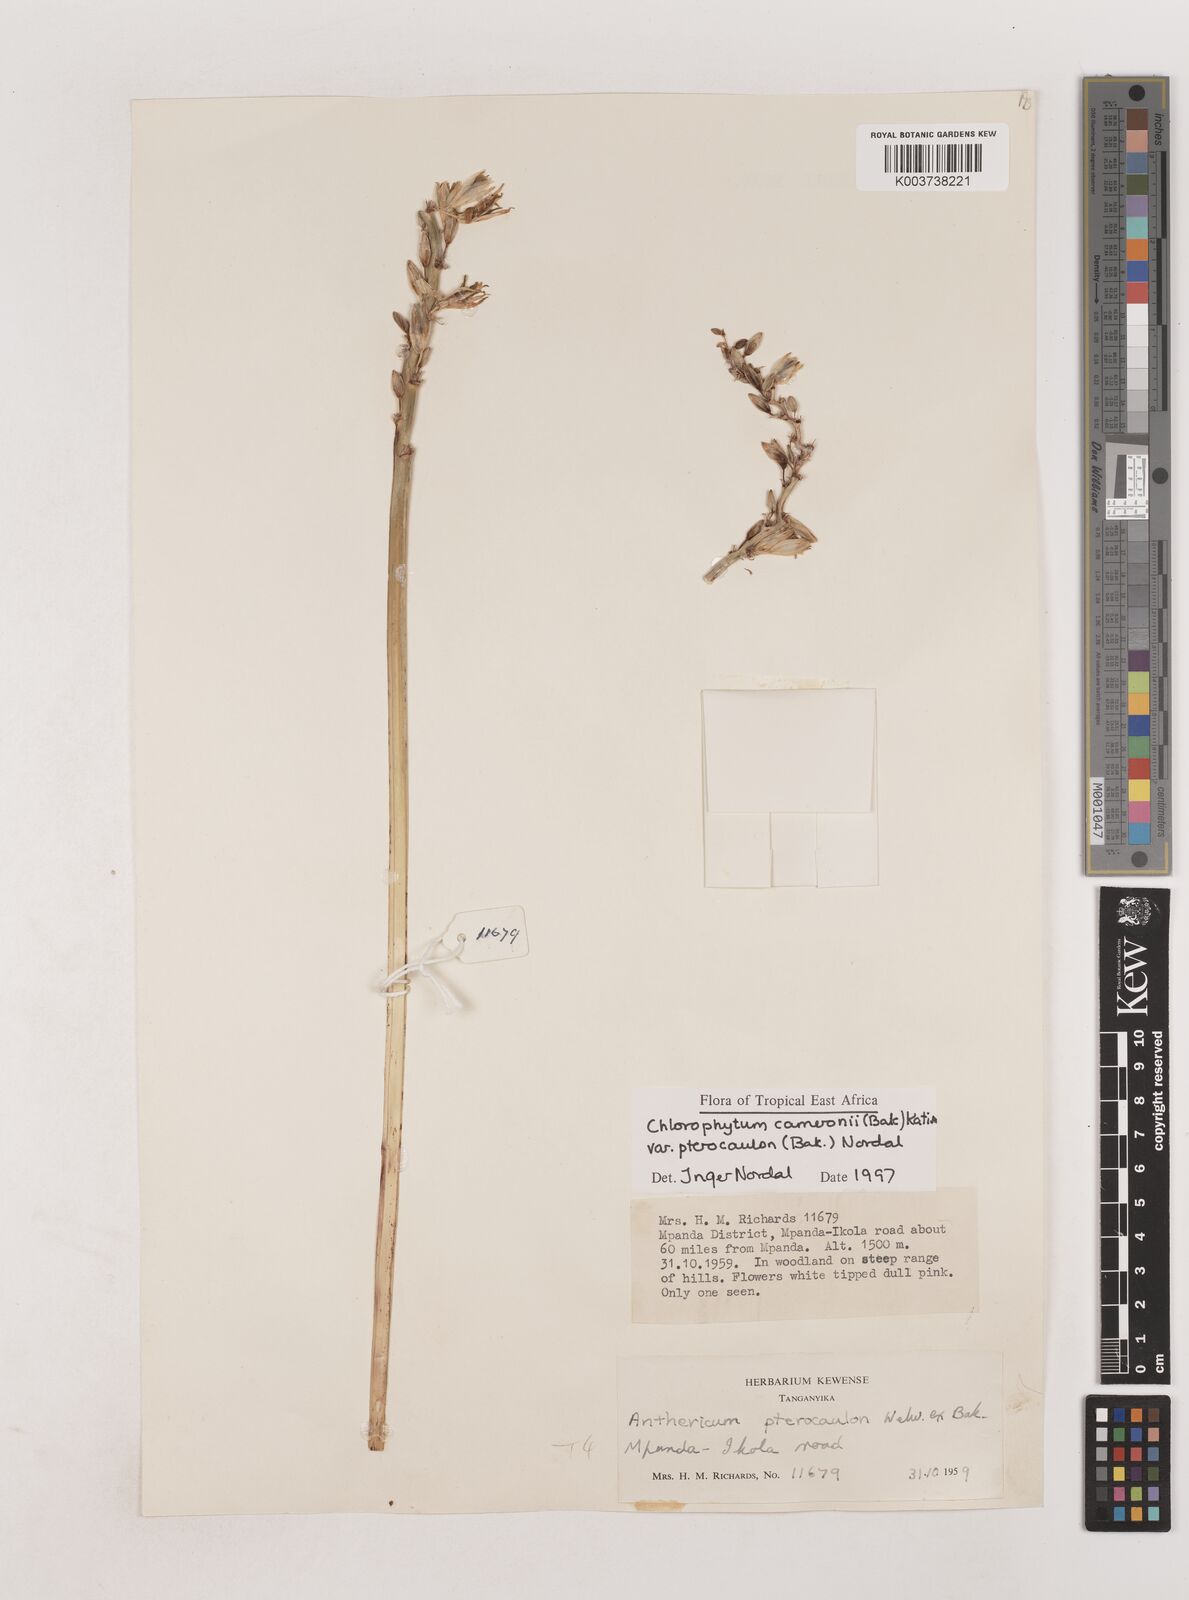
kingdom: Plantae
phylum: Tracheophyta
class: Liliopsida
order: Asparagales
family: Asparagaceae
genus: Chlorophytum
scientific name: Chlorophytum cameronii
